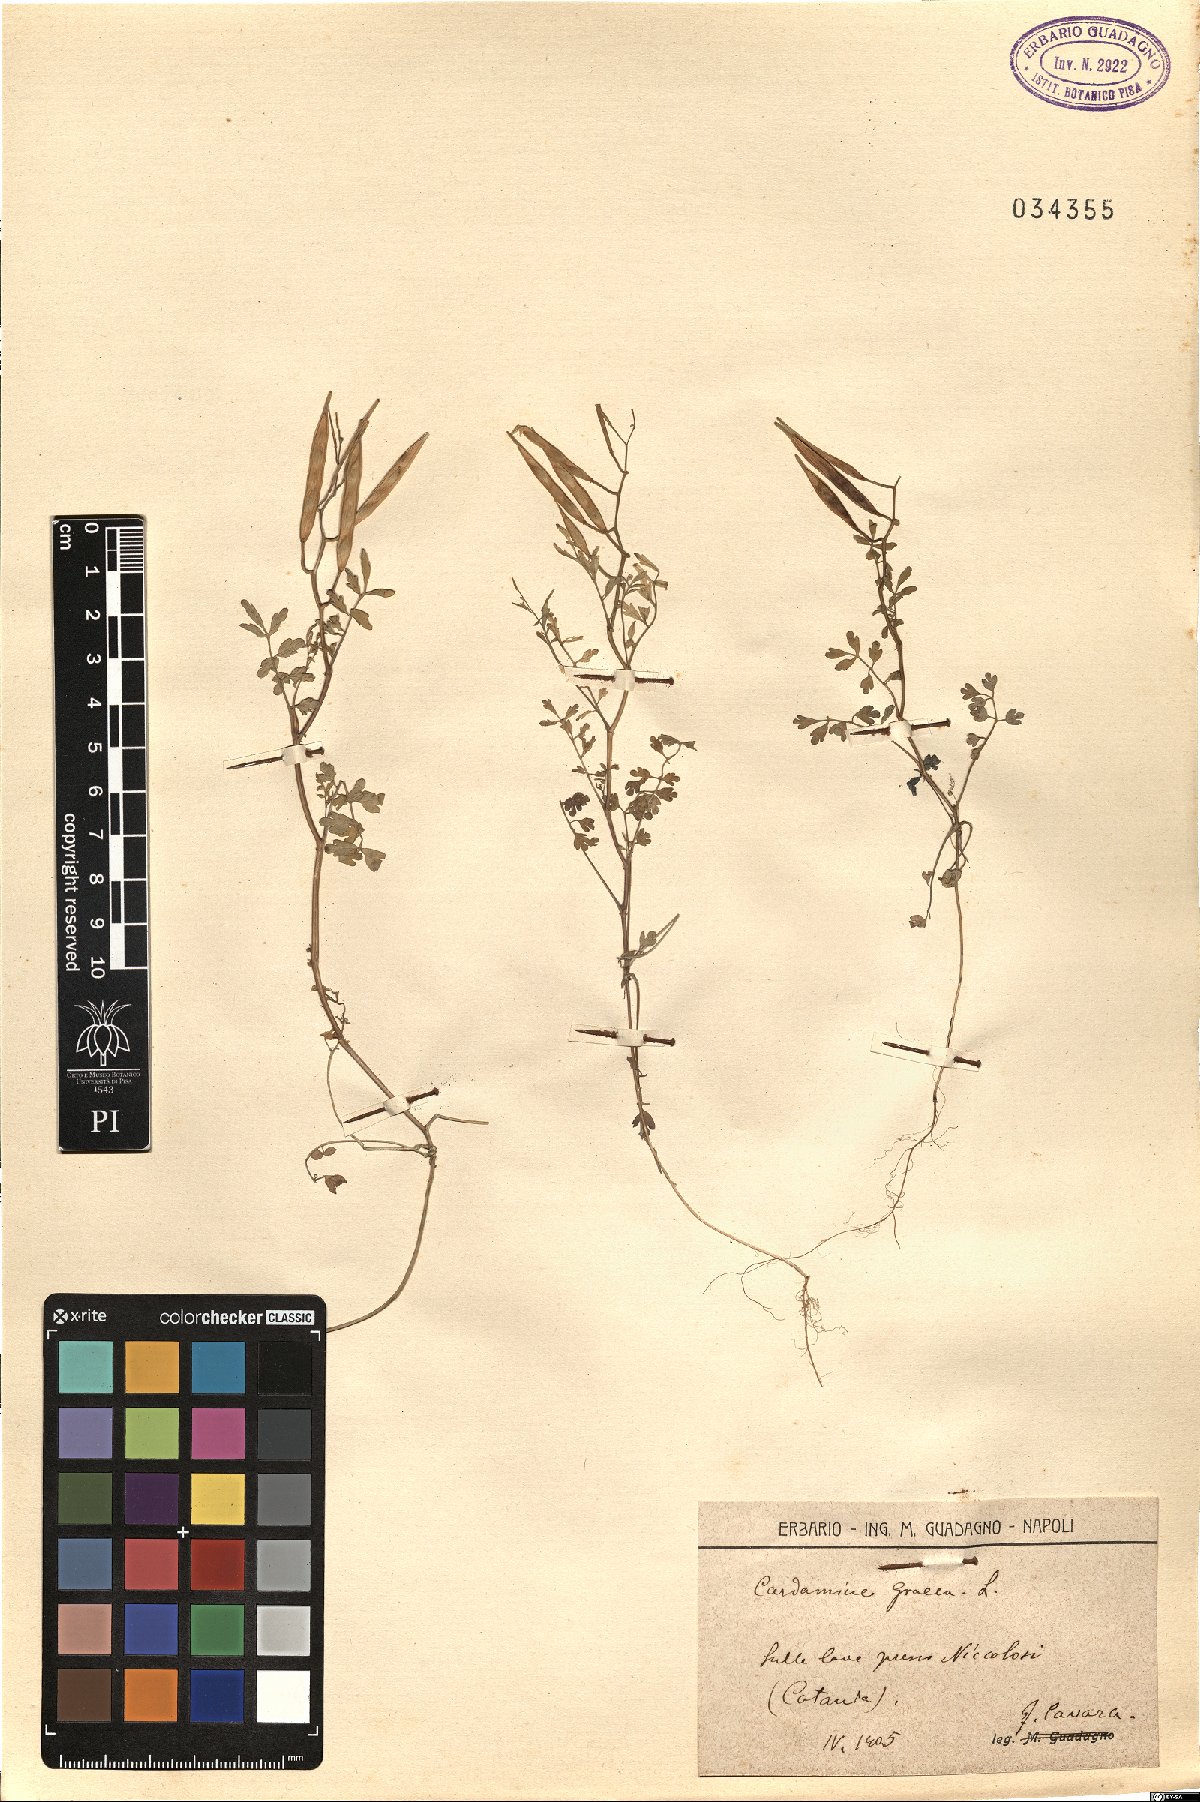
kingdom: Plantae
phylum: Tracheophyta
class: Magnoliopsida
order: Brassicales
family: Brassicaceae
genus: Cardamine
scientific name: Cardamine graeca
